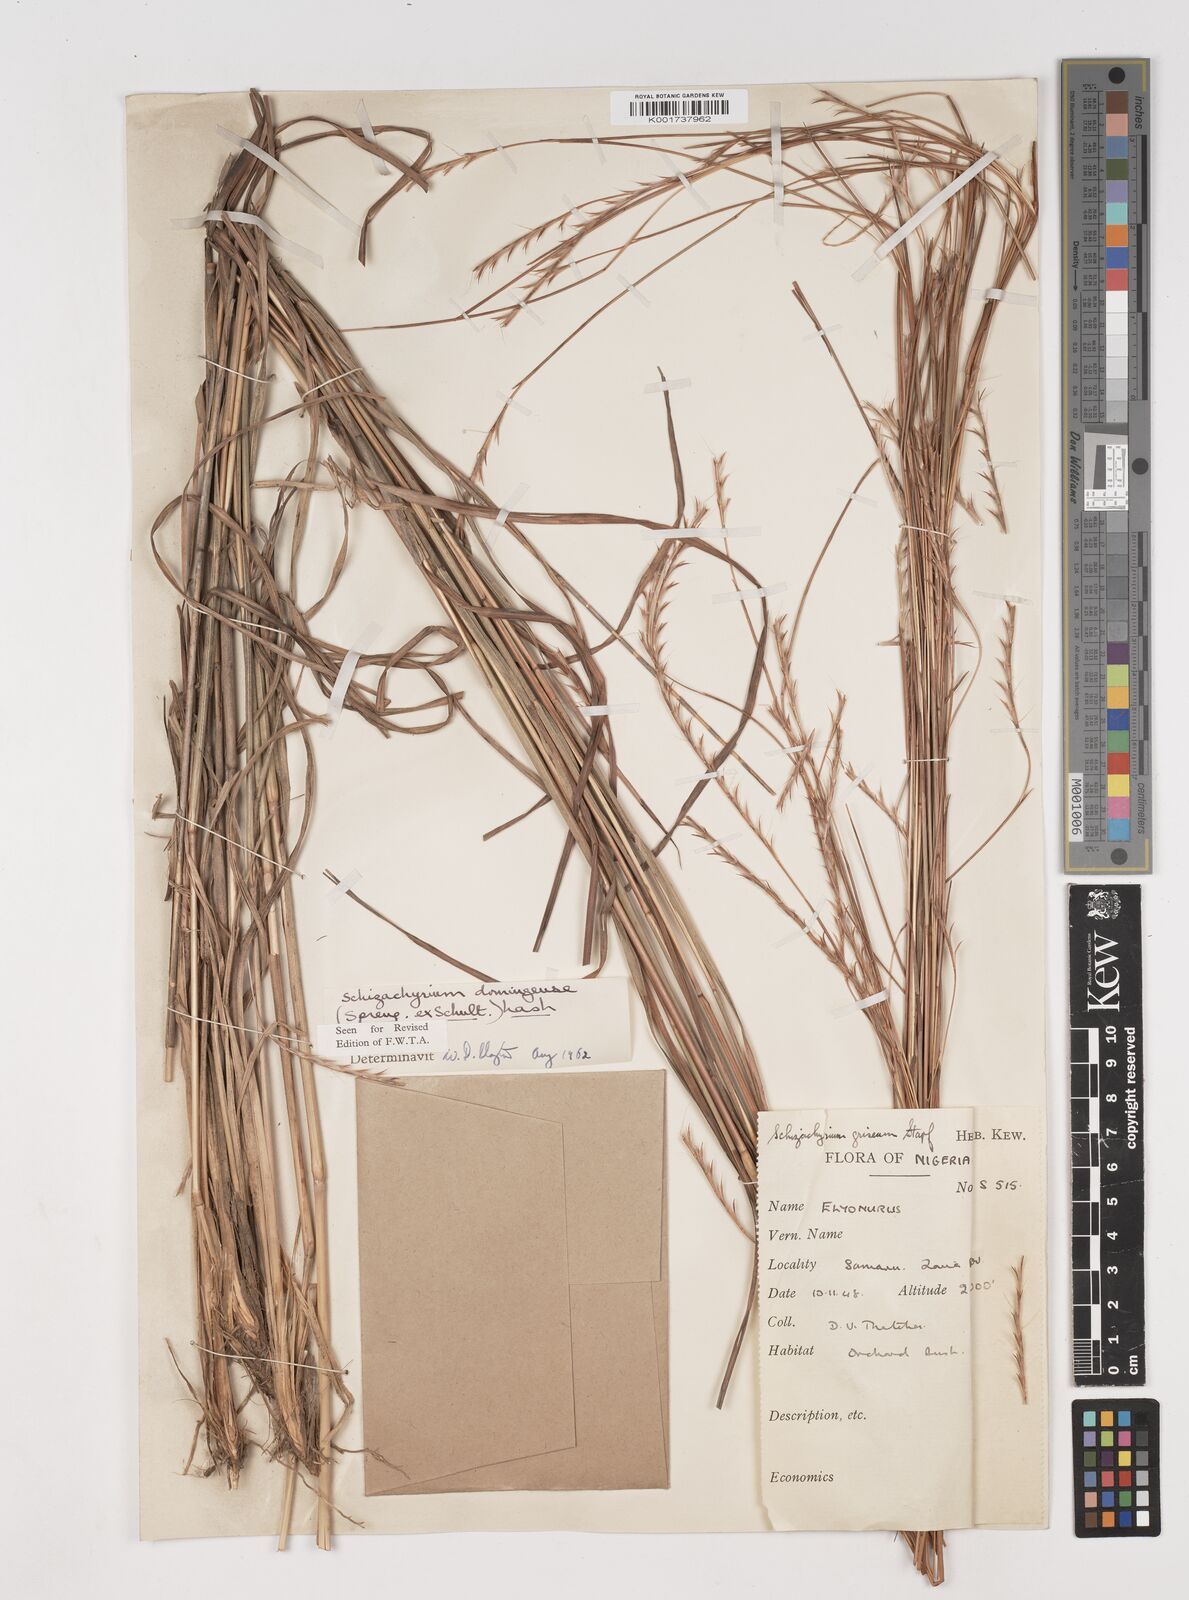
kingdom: Plantae
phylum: Tracheophyta
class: Liliopsida
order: Poales
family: Poaceae
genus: Schizachyrium
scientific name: Schizachyrium sanguineum
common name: Crimson bluestem
